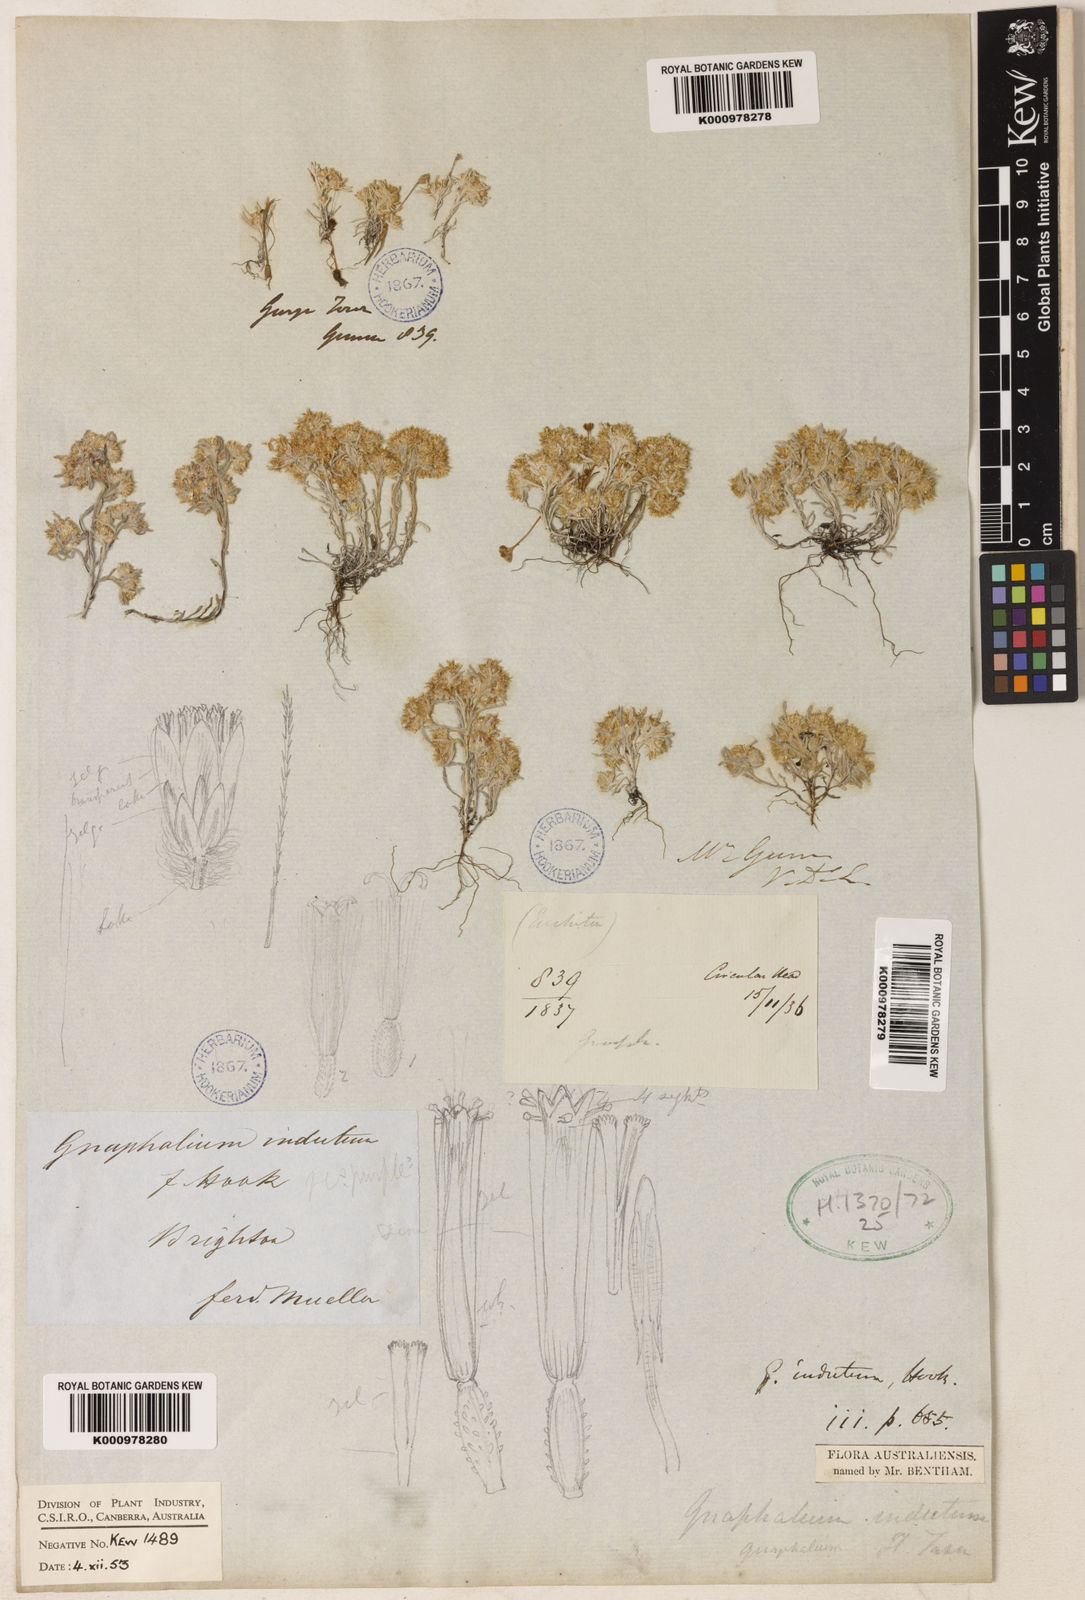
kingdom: Plantae
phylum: Tracheophyta
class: Magnoliopsida
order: Asterales
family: Asteraceae
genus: Gnaphalium
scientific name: Gnaphalium indutum
